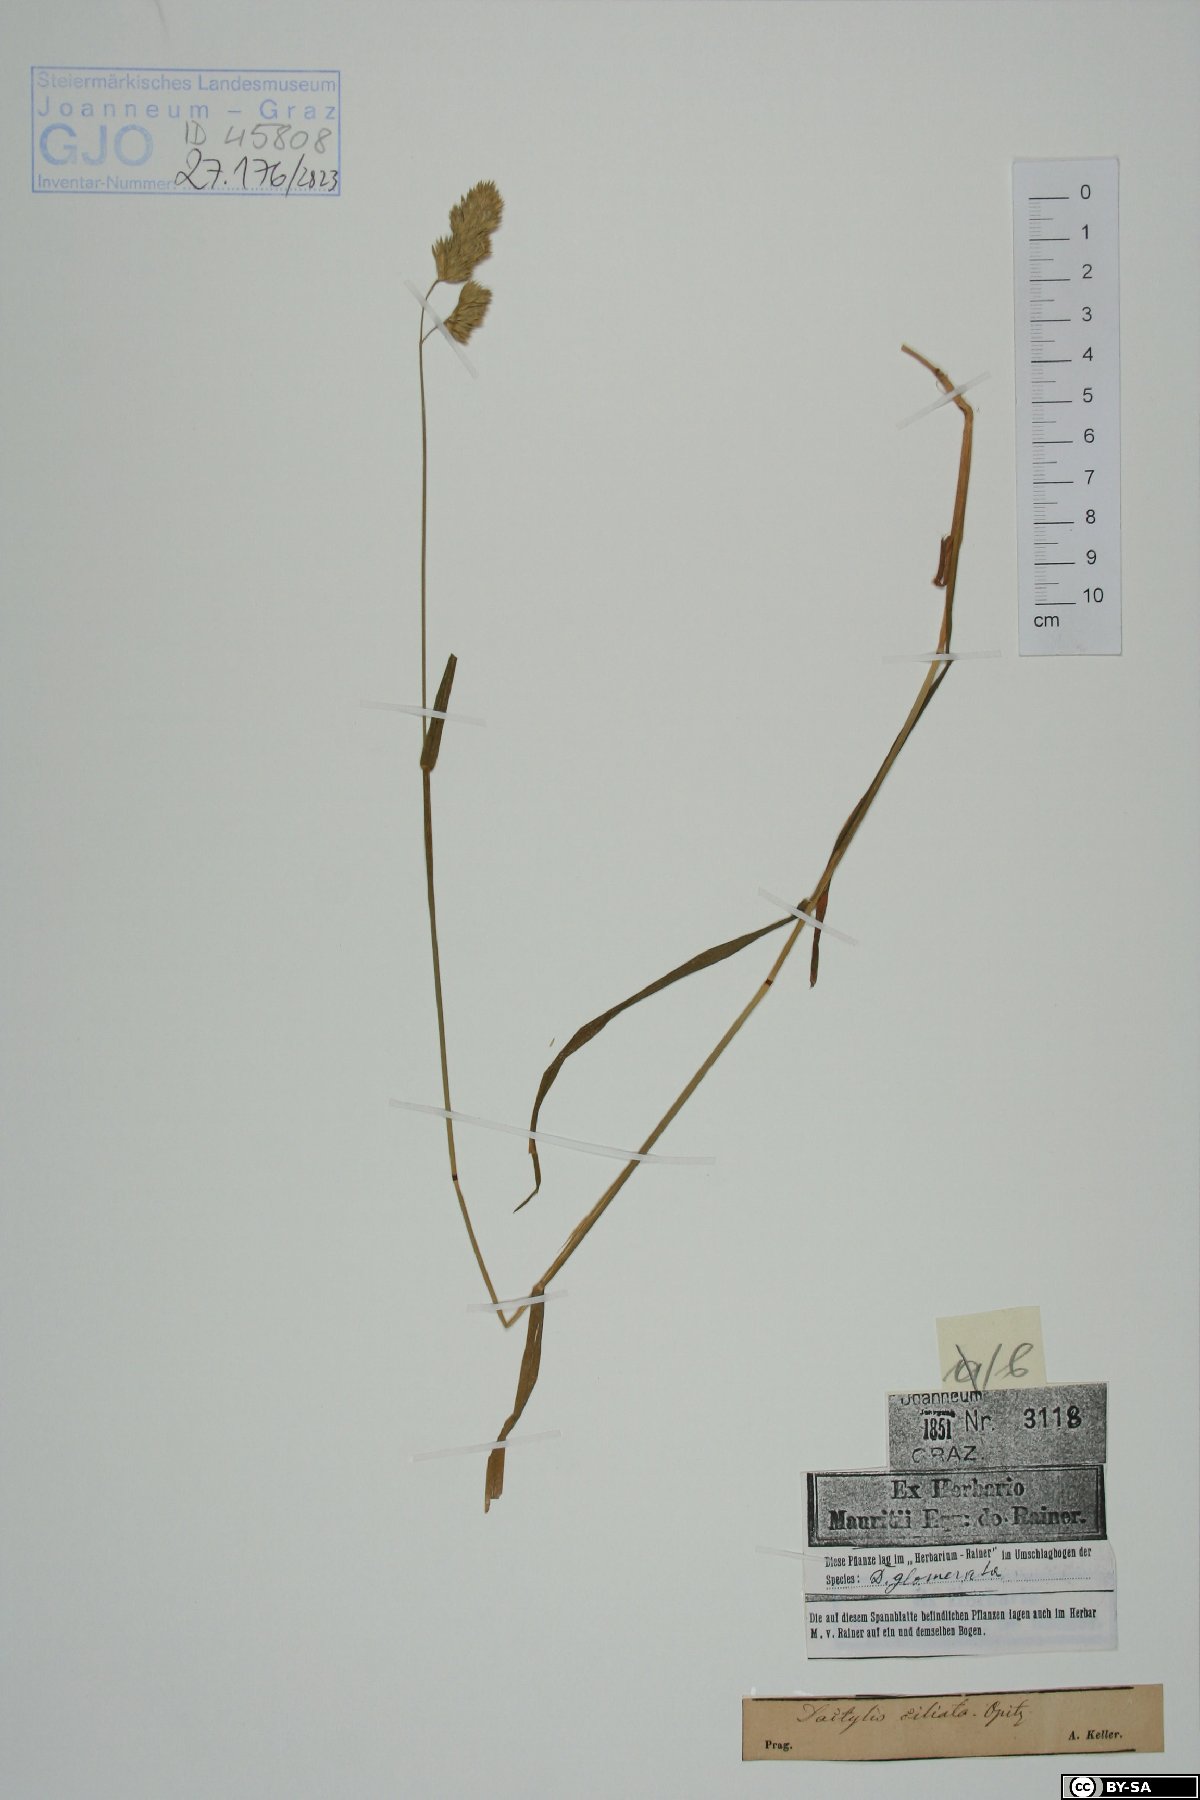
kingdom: Plantae
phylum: Tracheophyta
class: Liliopsida
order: Poales
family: Poaceae
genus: Dactylis
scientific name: Dactylis glomerata
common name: Orchardgrass
